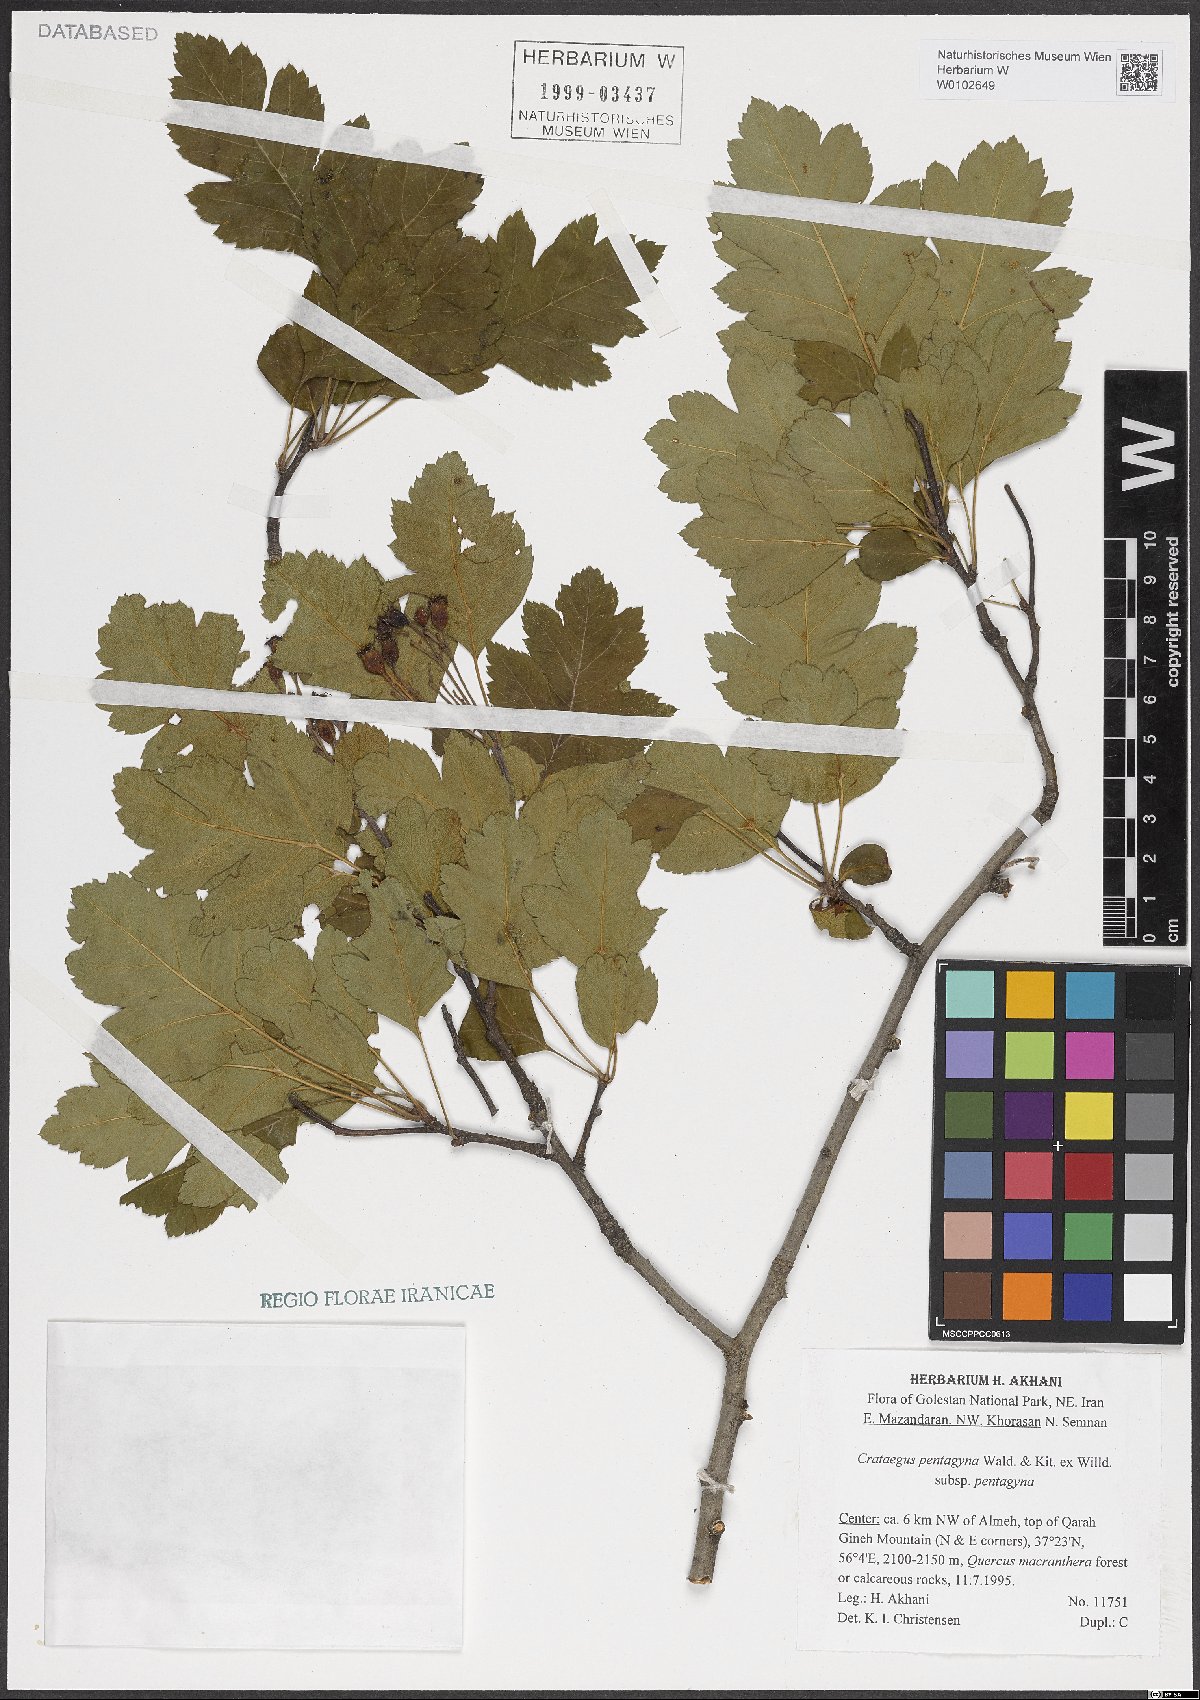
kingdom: Plantae
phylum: Tracheophyta
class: Magnoliopsida
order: Rosales
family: Rosaceae
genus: Crataegus
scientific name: Crataegus pentagyna
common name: Small-flowered black hawthorn
